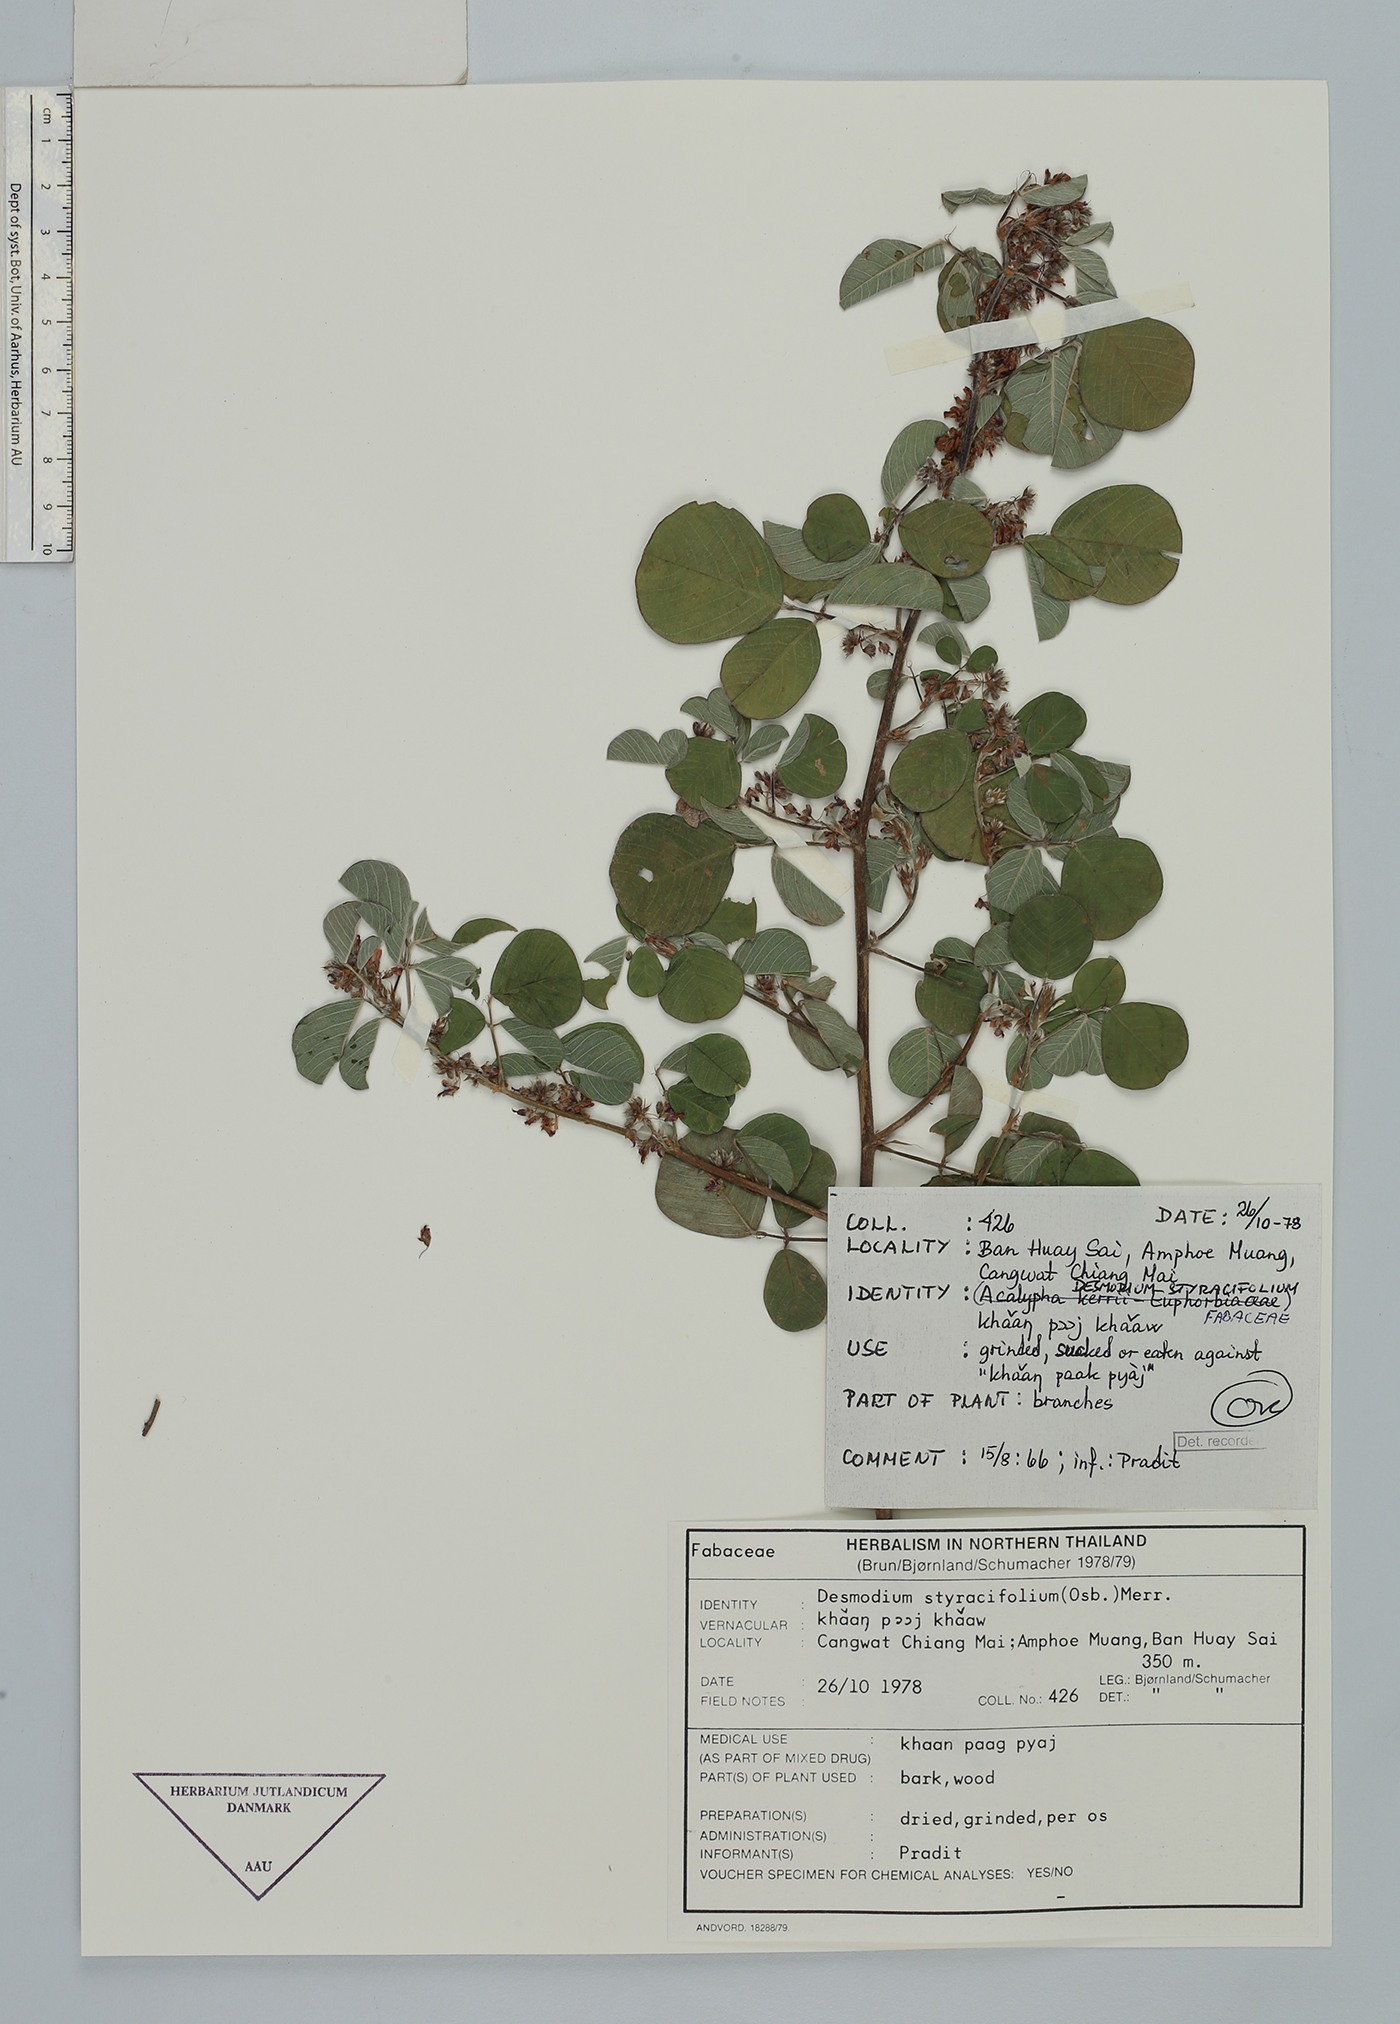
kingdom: Plantae
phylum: Tracheophyta
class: Magnoliopsida
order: Fabales
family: Fabaceae
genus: Grona
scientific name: Grona styracifolia
